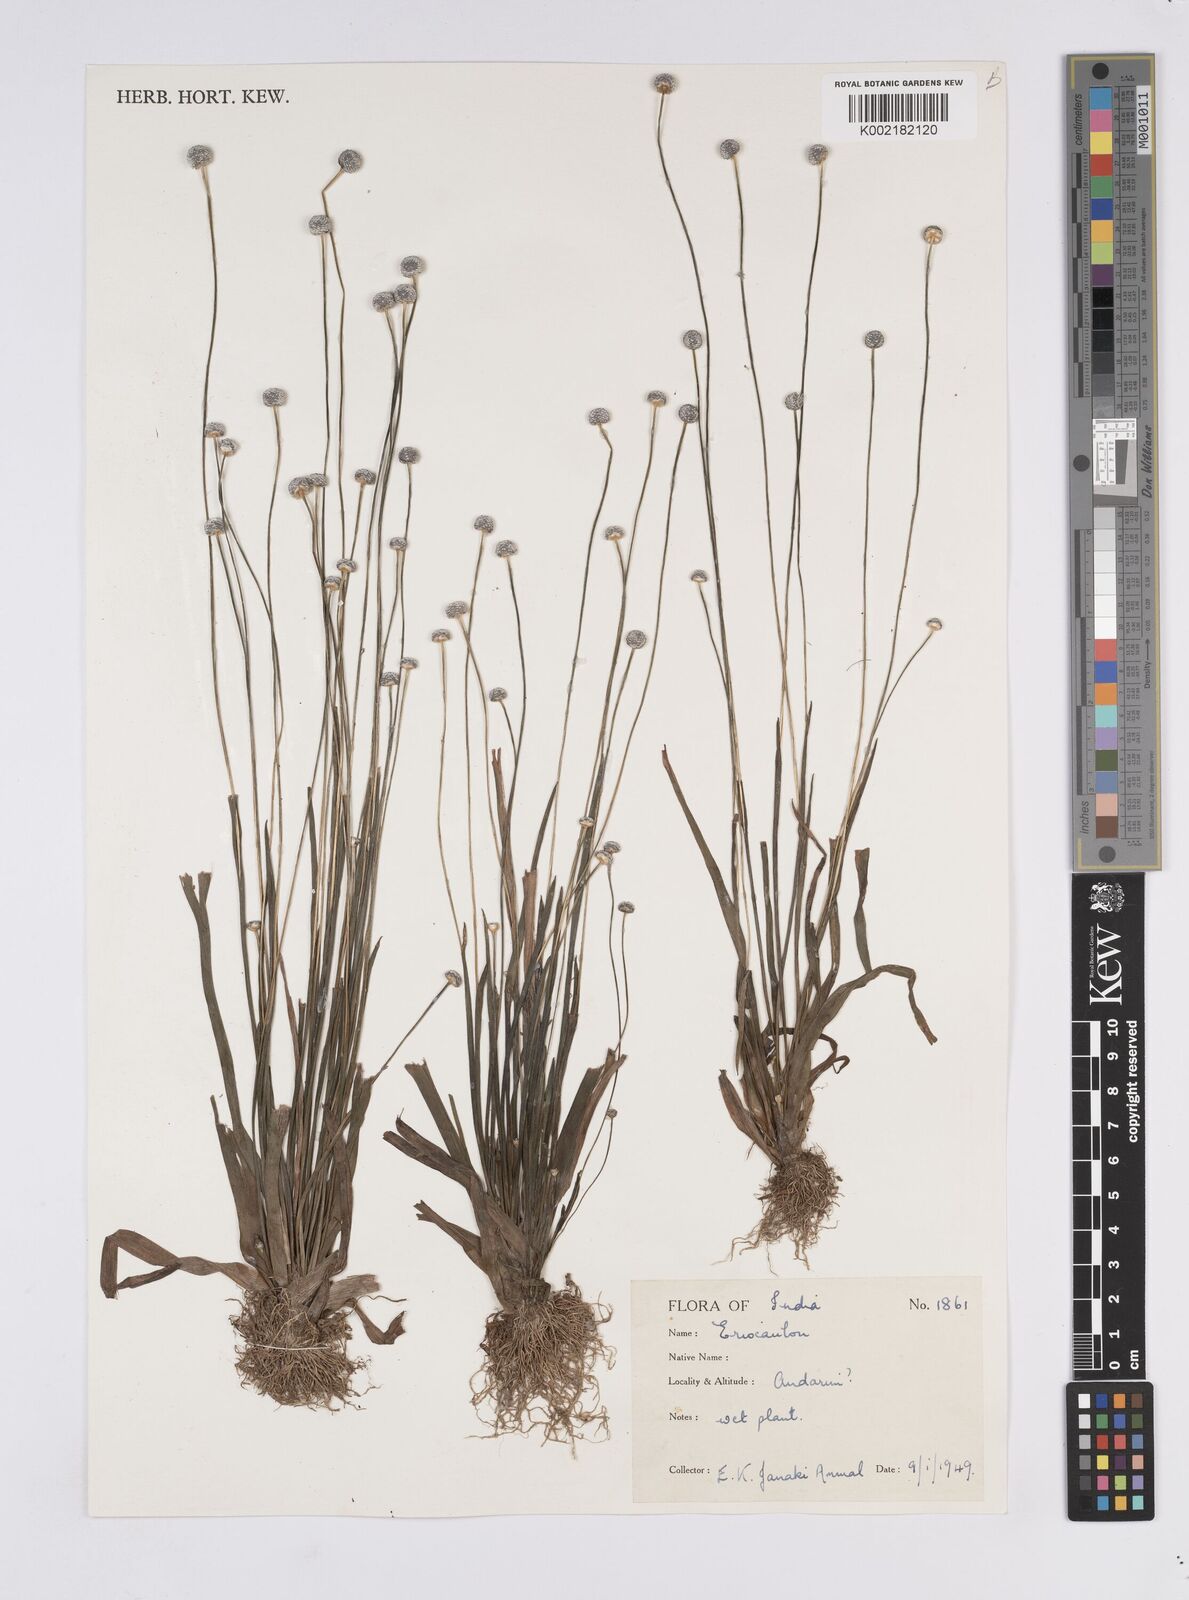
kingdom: Plantae
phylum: Tracheophyta
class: Liliopsida
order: Poales
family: Eriocaulaceae
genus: Eriocaulon
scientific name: Eriocaulon
